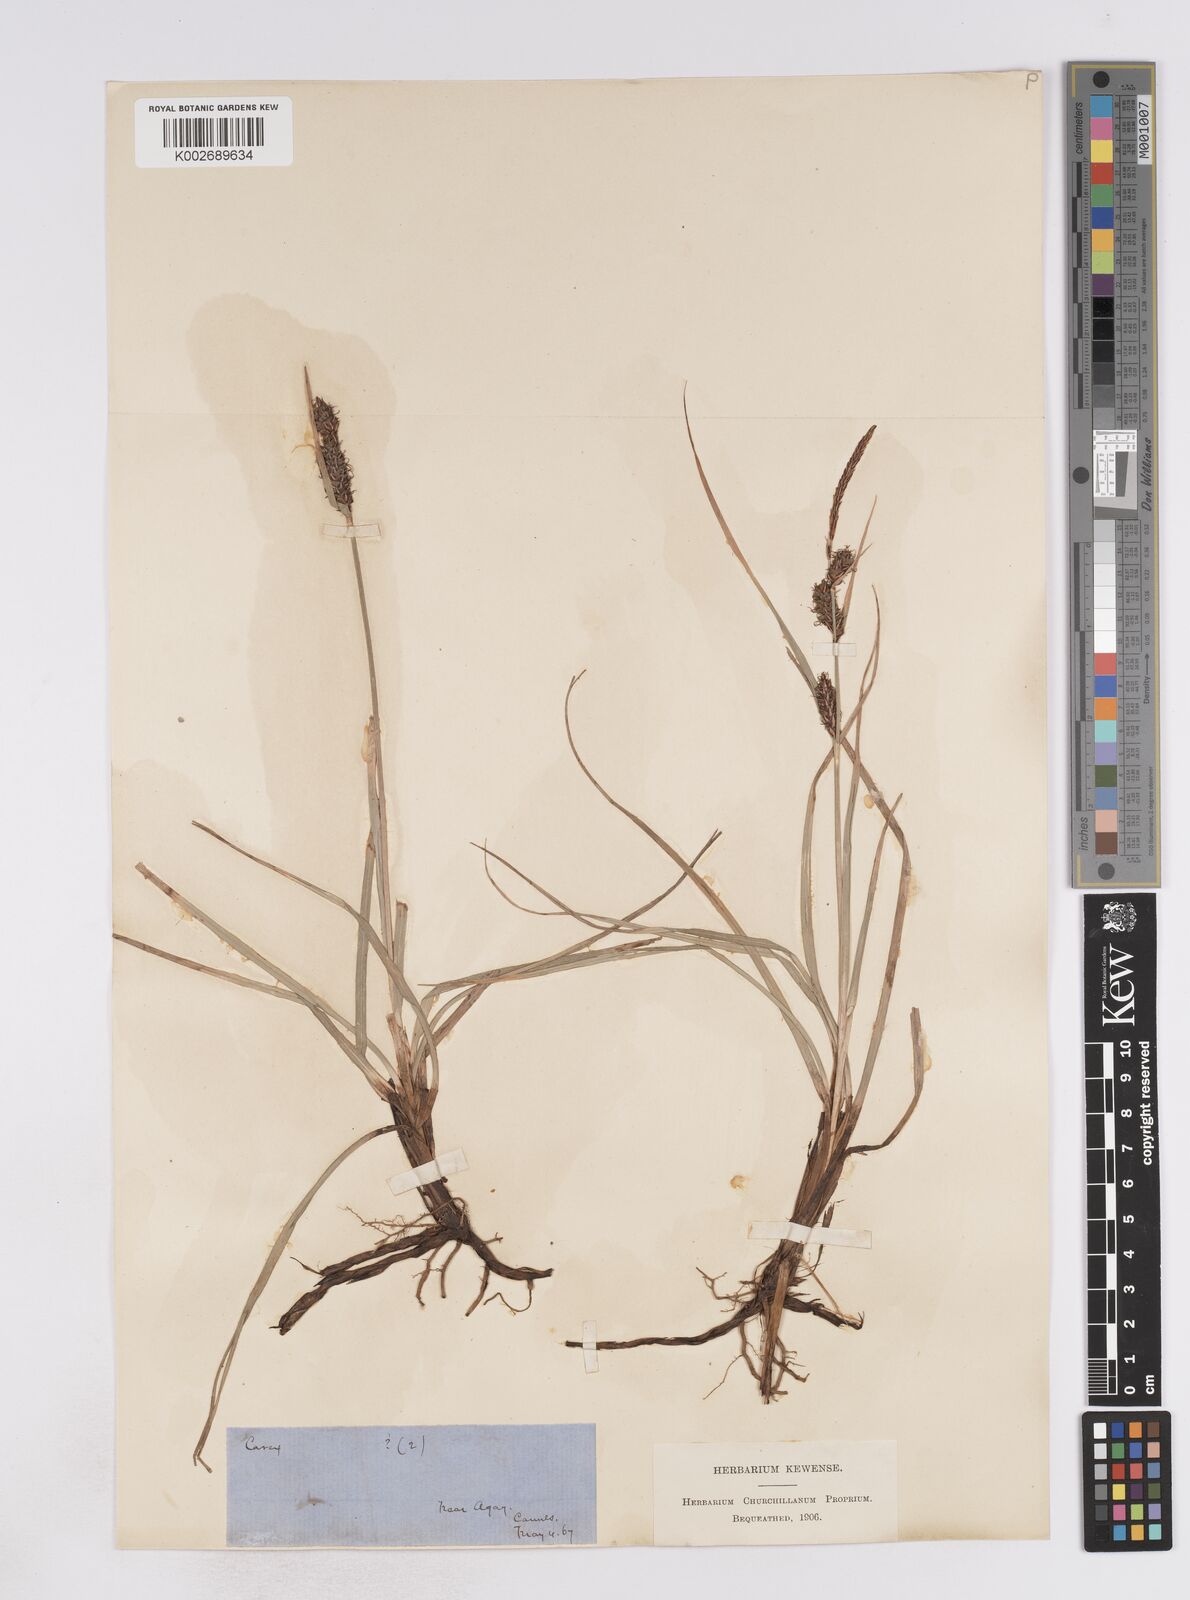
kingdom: Plantae
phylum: Tracheophyta
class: Liliopsida
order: Poales
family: Cyperaceae
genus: Carex
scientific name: Carex flacca
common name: Glaucous sedge
